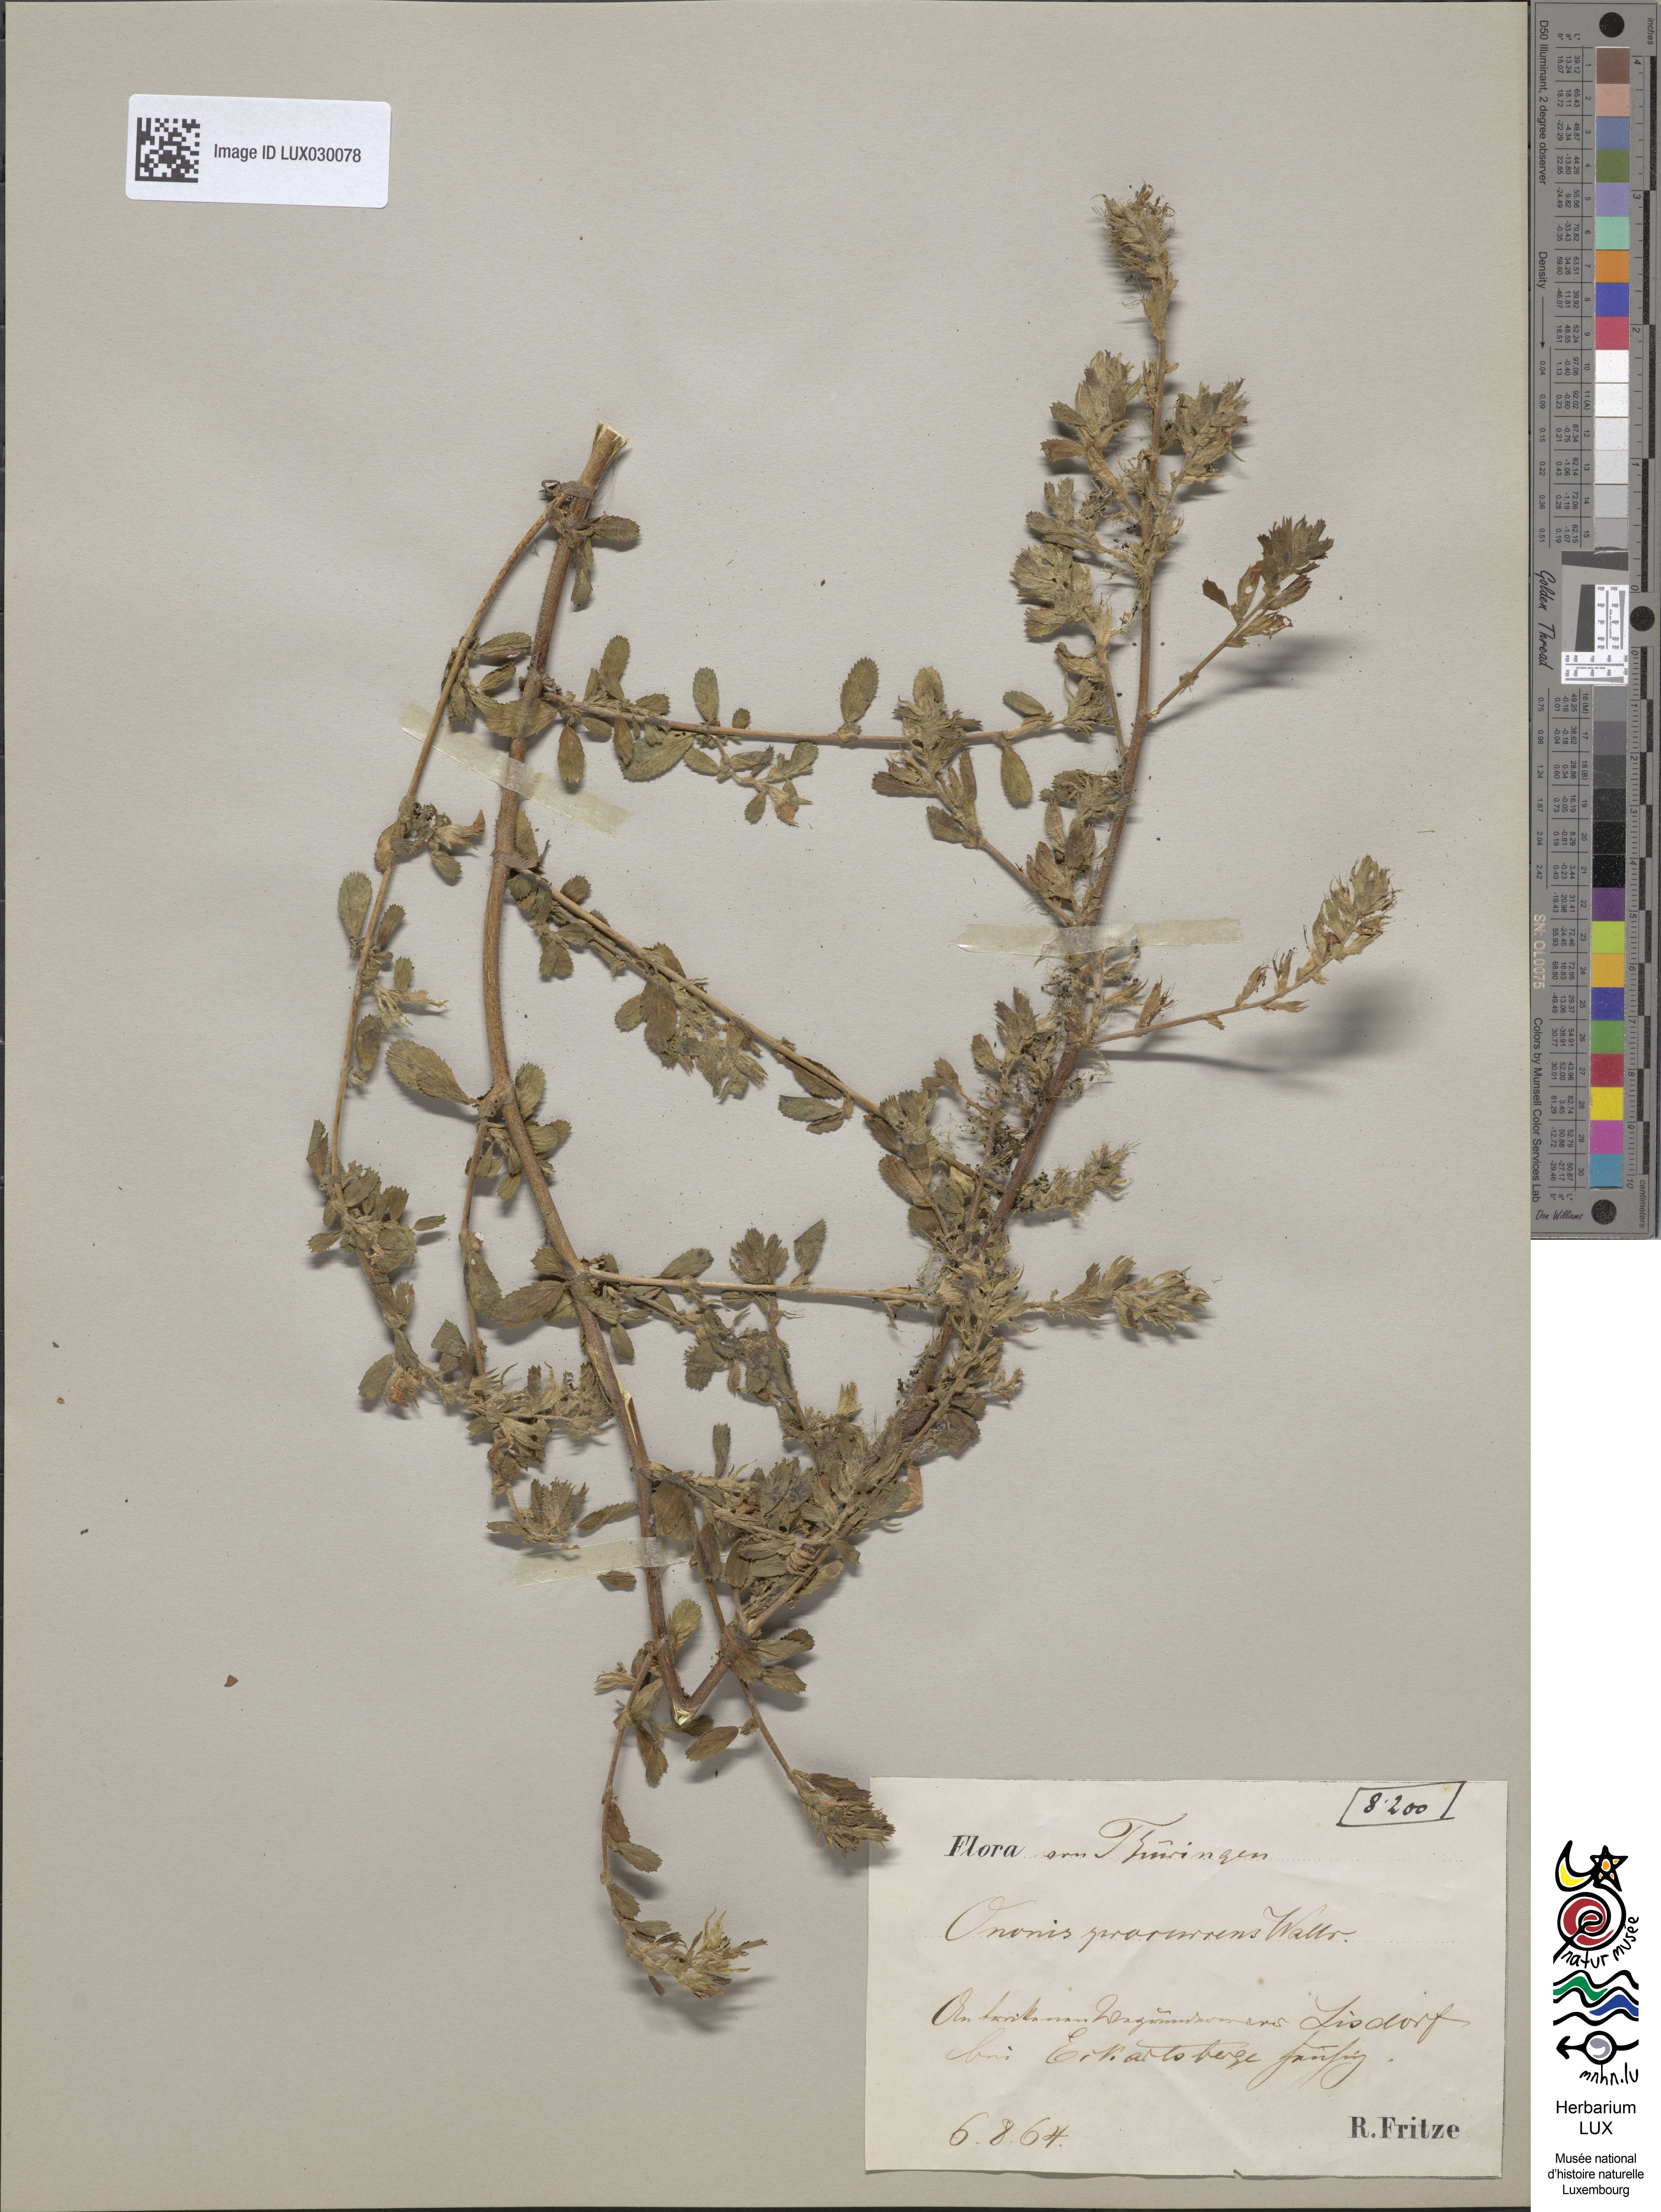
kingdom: Plantae
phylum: Tracheophyta
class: Magnoliopsida
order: Fabales
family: Fabaceae
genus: Ononis
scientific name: Ononis spinosa
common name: Spiny restharrow
